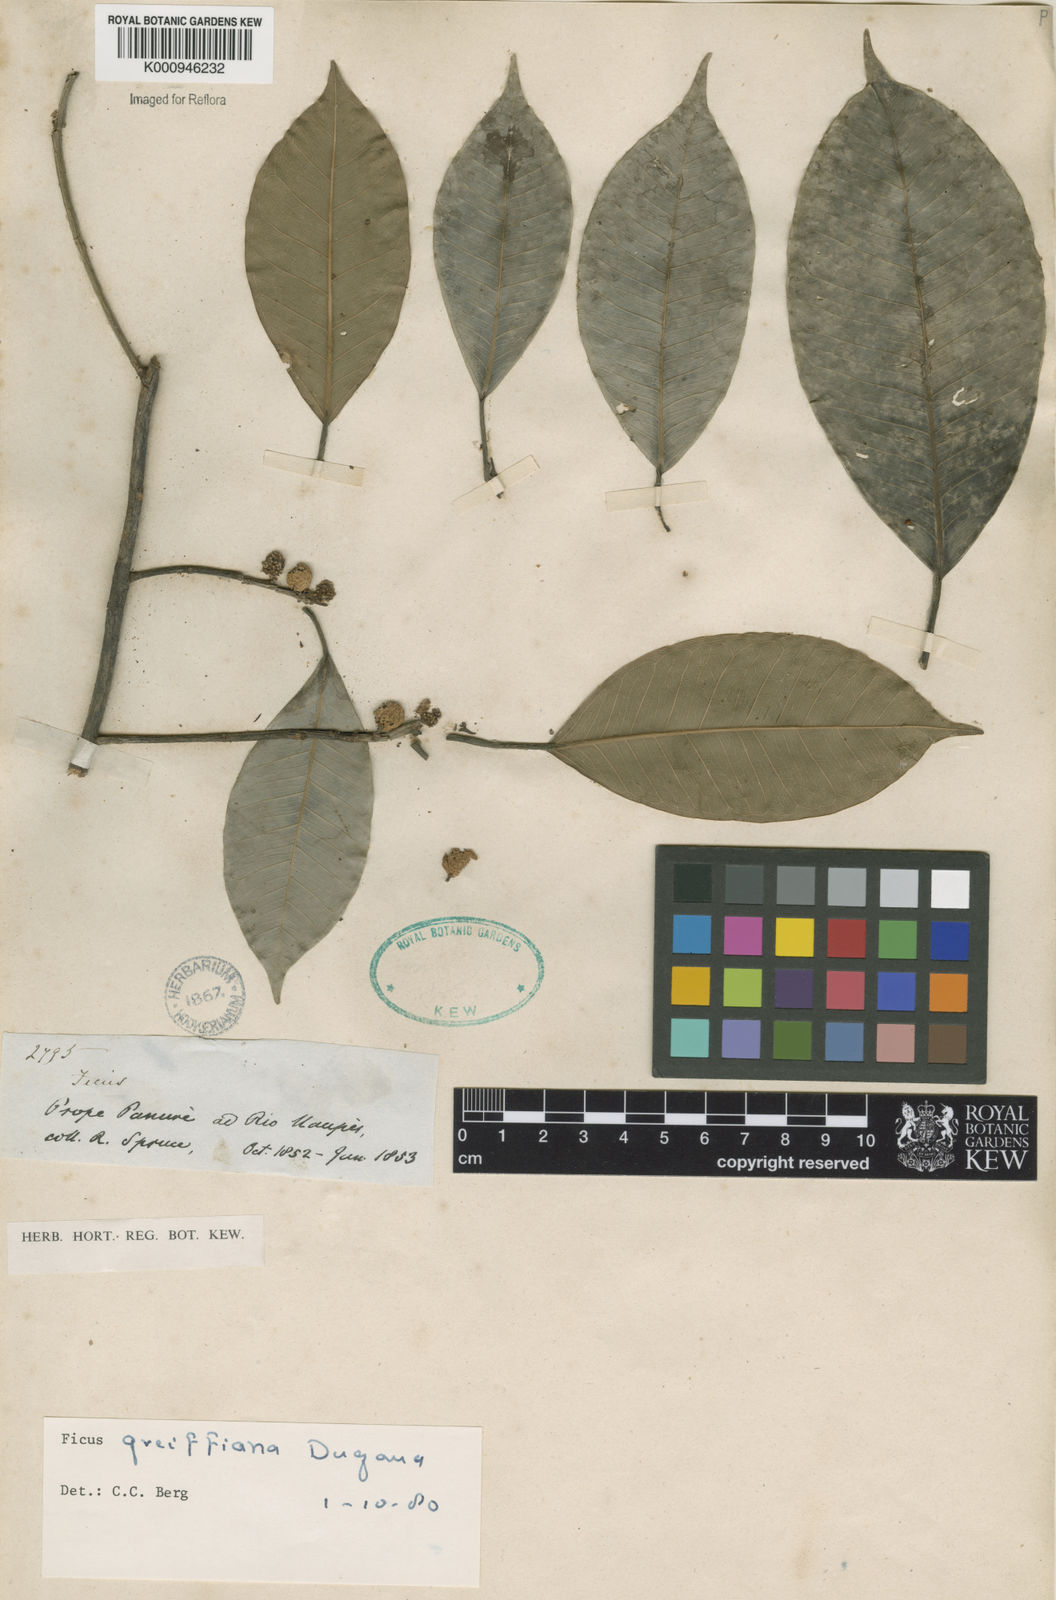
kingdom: Plantae
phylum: Tracheophyta
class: Magnoliopsida
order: Rosales
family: Moraceae
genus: Ficus
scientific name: Ficus americana
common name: Jamaican cherry fig
